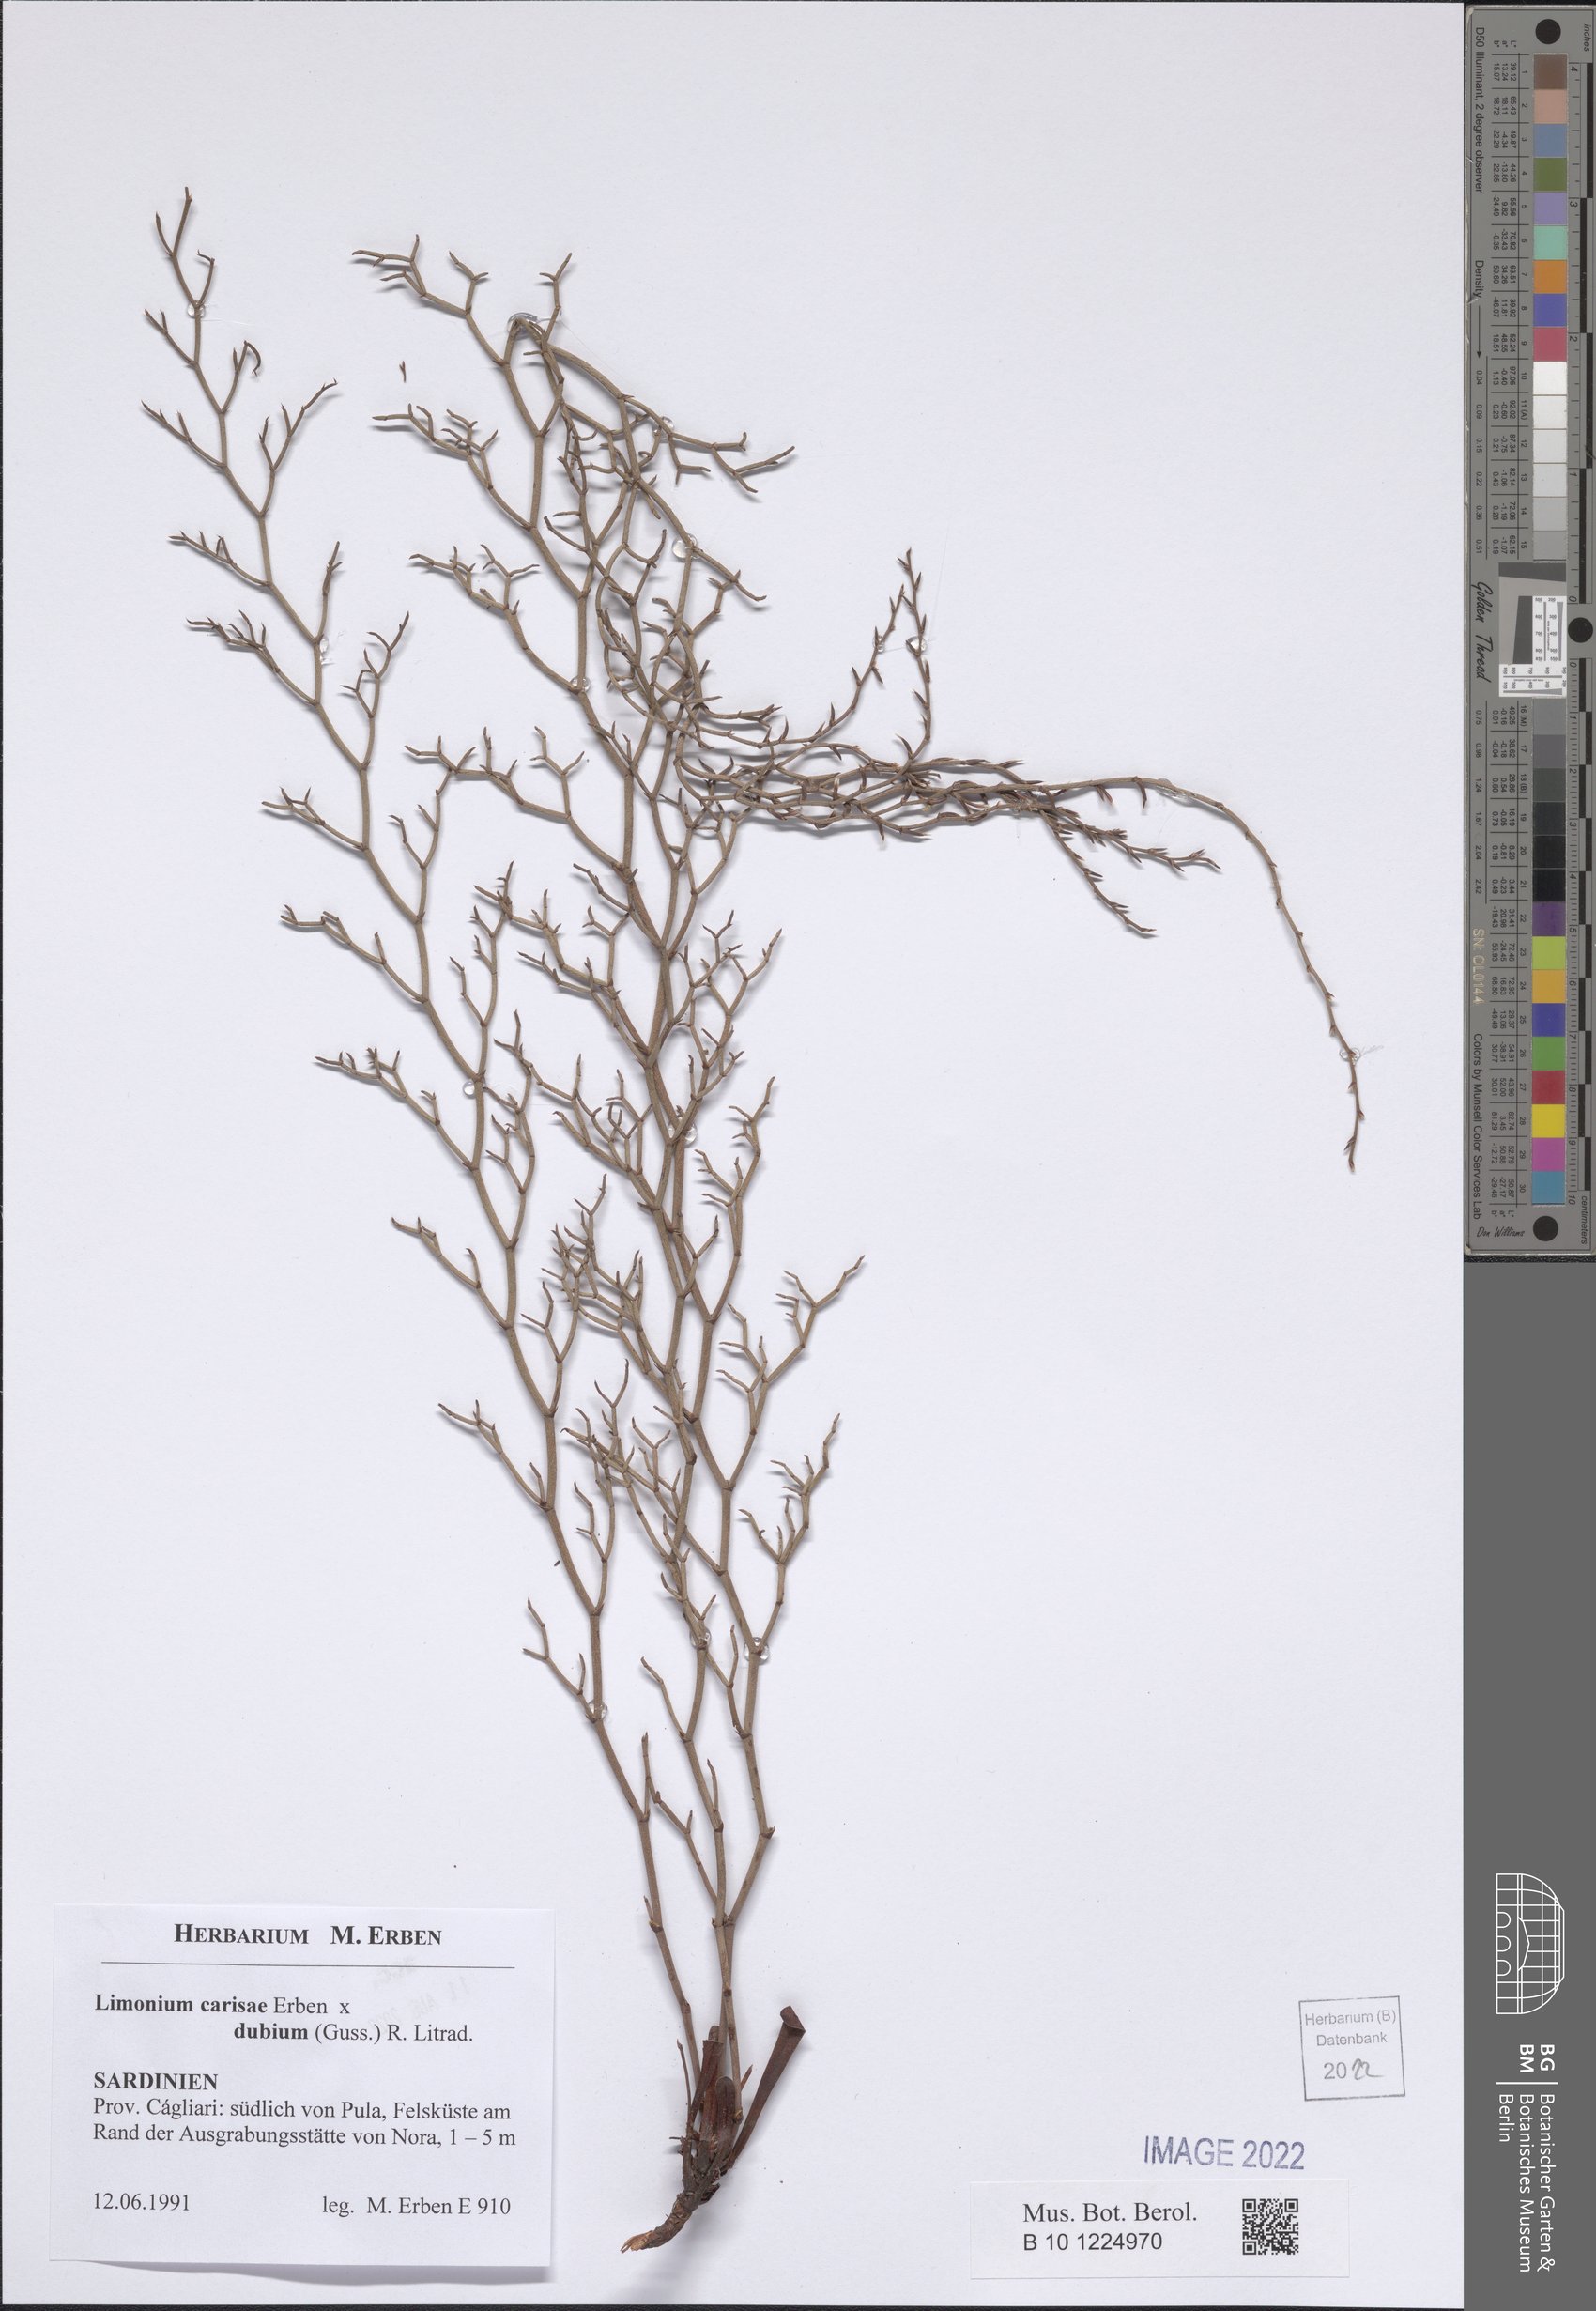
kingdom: Plantae
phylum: Tracheophyta
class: Magnoliopsida
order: Caryophyllales
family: Plumbaginaceae
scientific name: Plumbaginaceae
